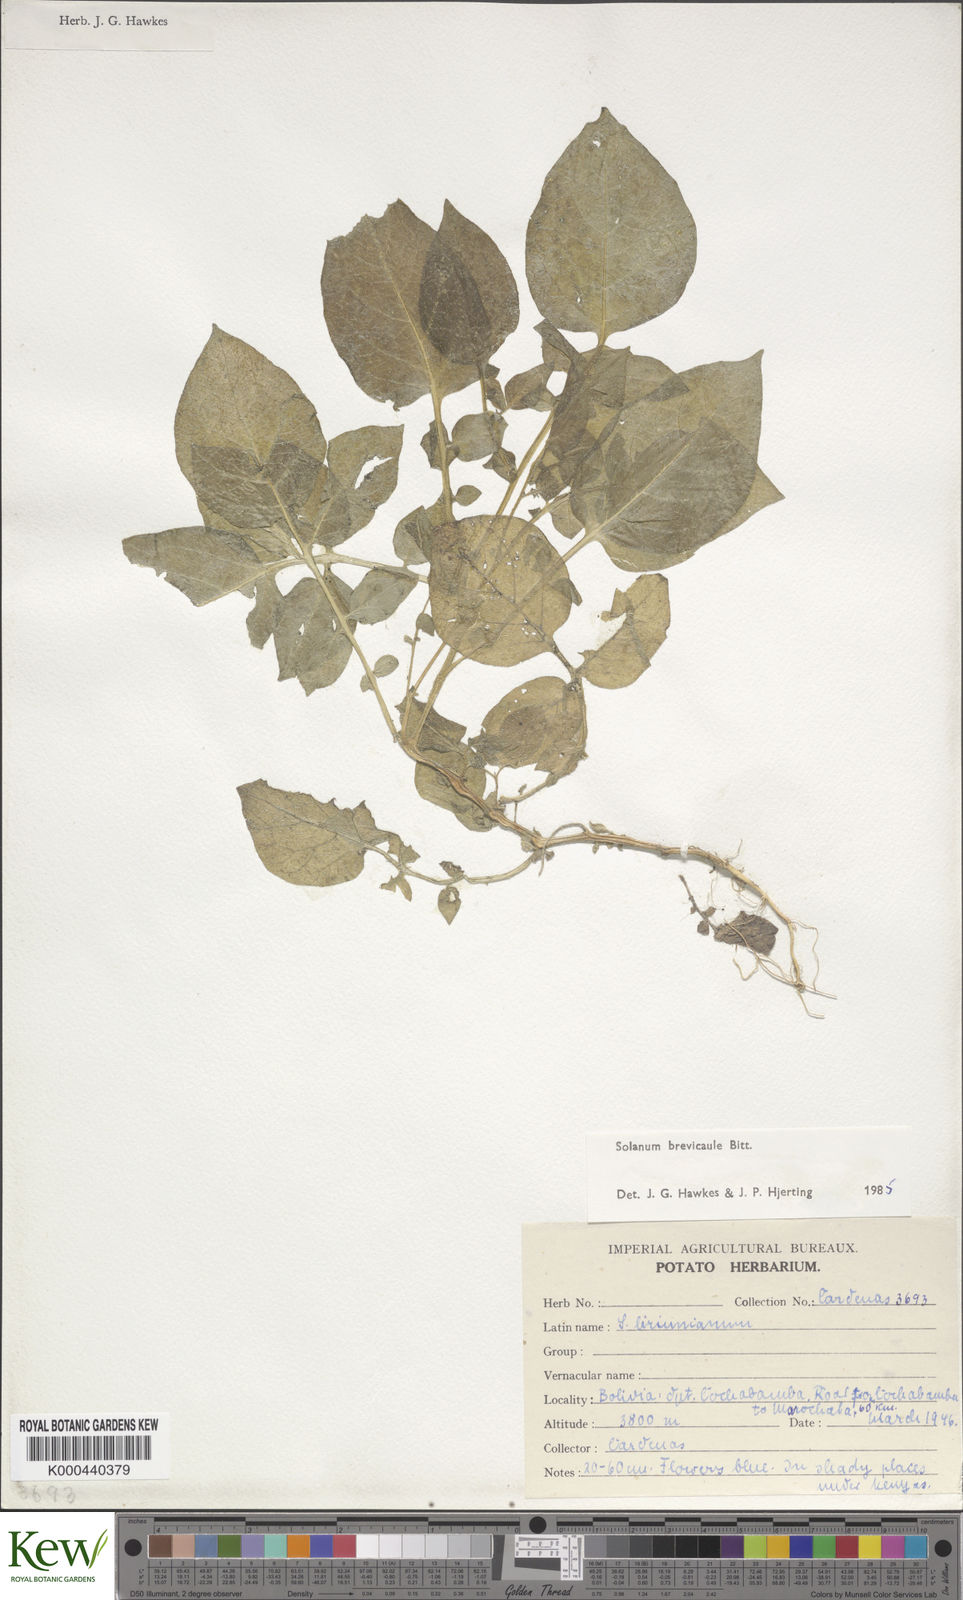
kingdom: Plantae
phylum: Tracheophyta
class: Magnoliopsida
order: Solanales
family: Solanaceae
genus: Solanum
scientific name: Solanum brevicaule
